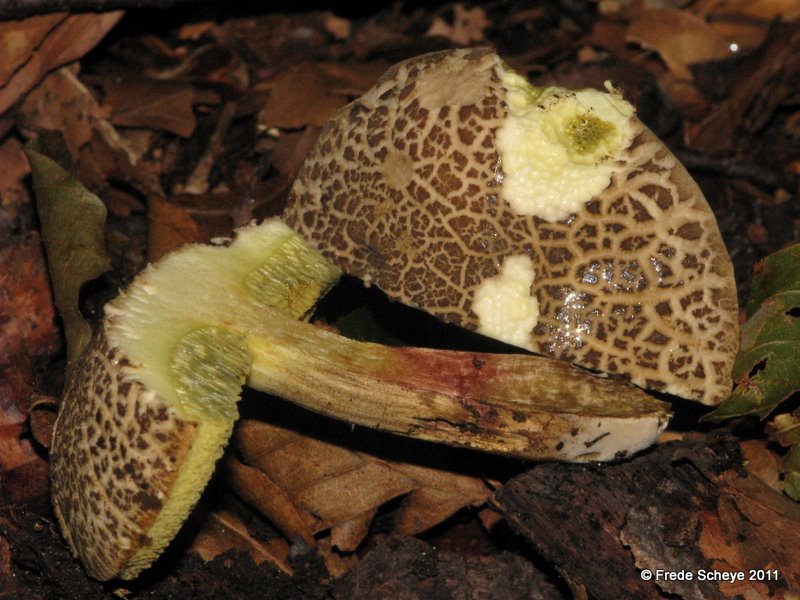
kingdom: Fungi
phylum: Basidiomycota
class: Agaricomycetes
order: Boletales
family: Boletaceae
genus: Xerocomellus
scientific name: Xerocomellus chrysenteron
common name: rødsprukken rørhat
